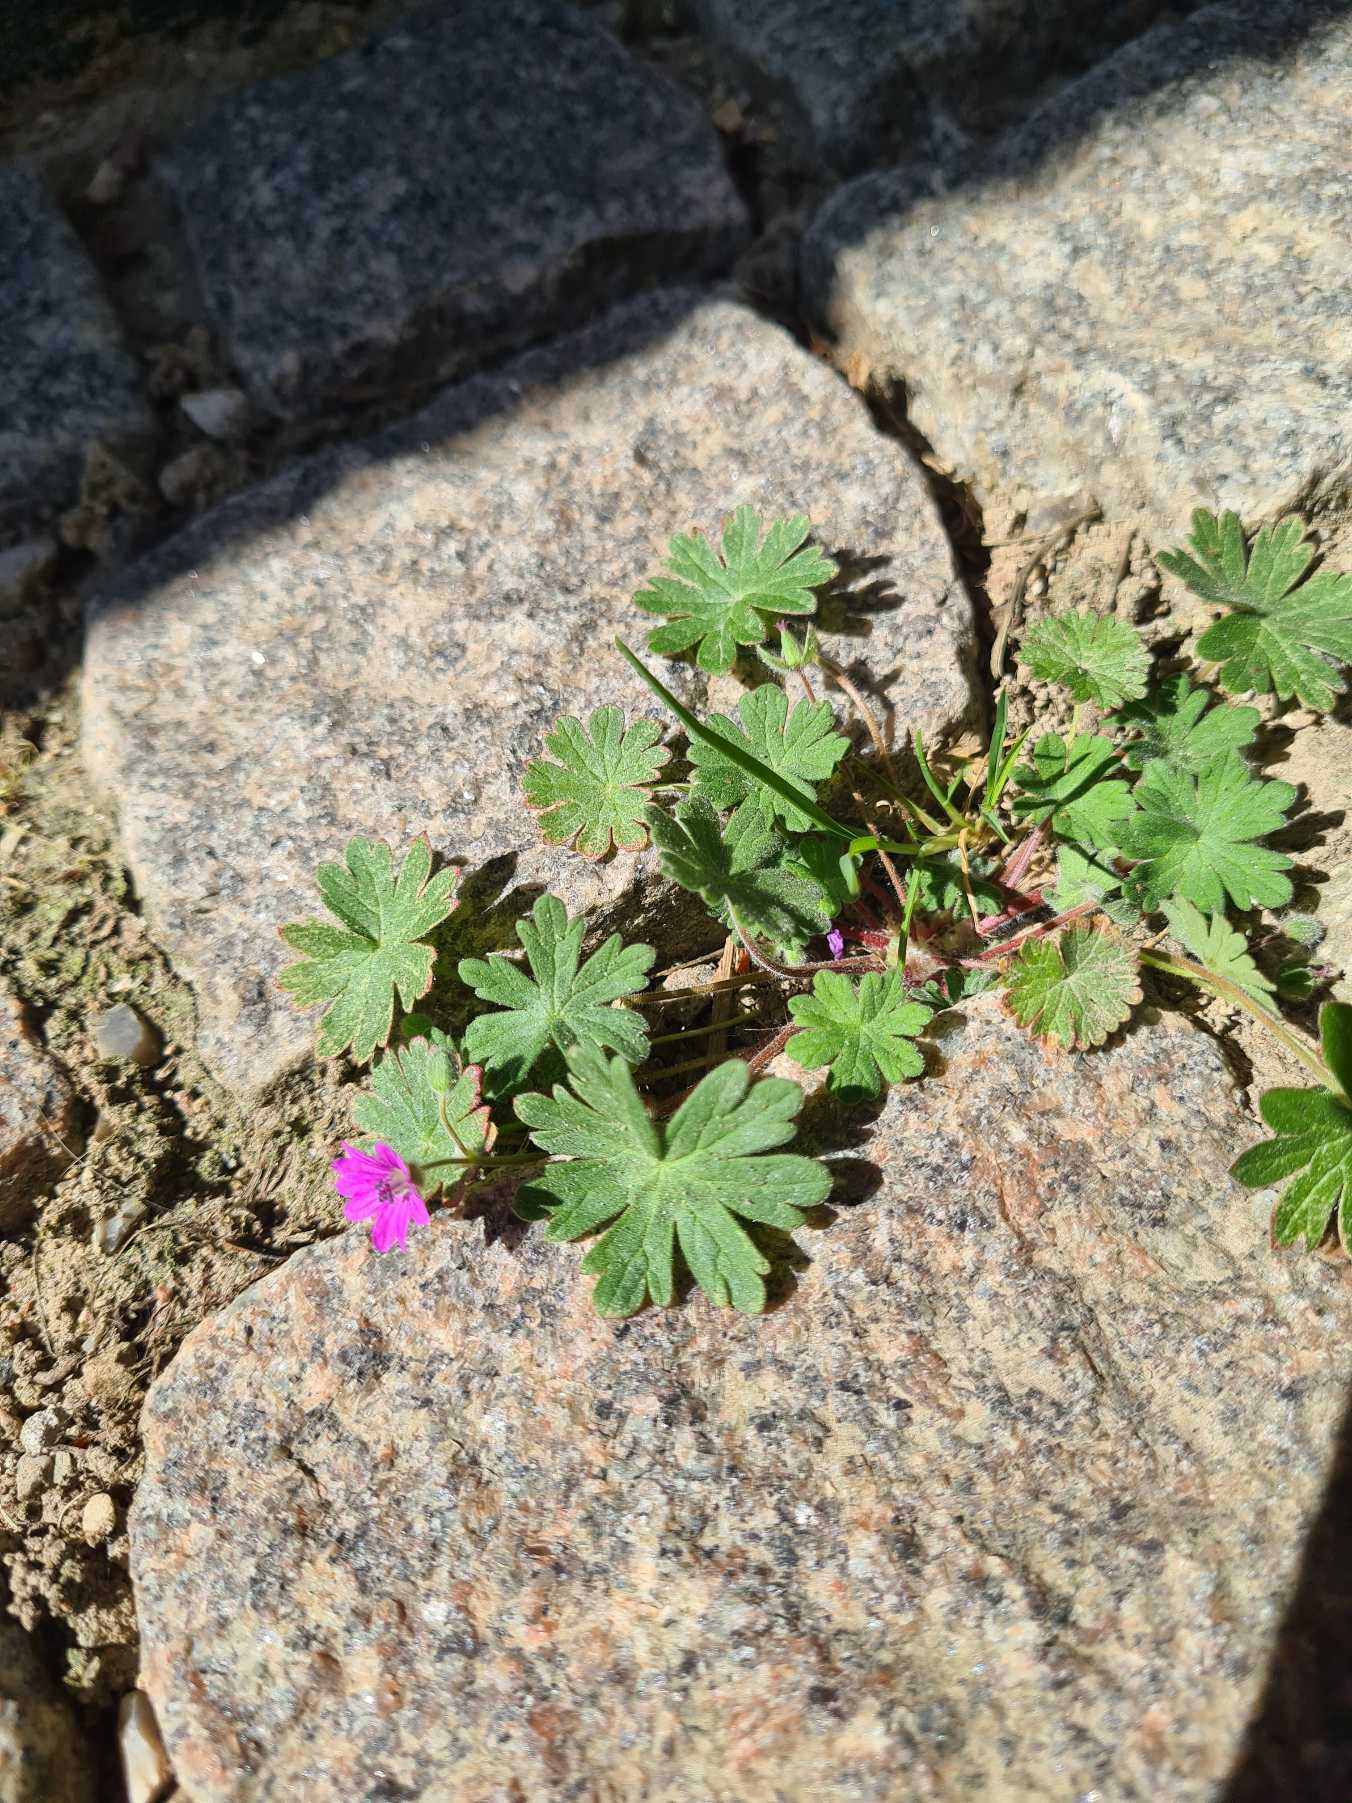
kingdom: Plantae
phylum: Tracheophyta
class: Magnoliopsida
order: Geraniales
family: Geraniaceae
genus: Geranium
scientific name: Geranium molle
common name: Blød storkenæb
